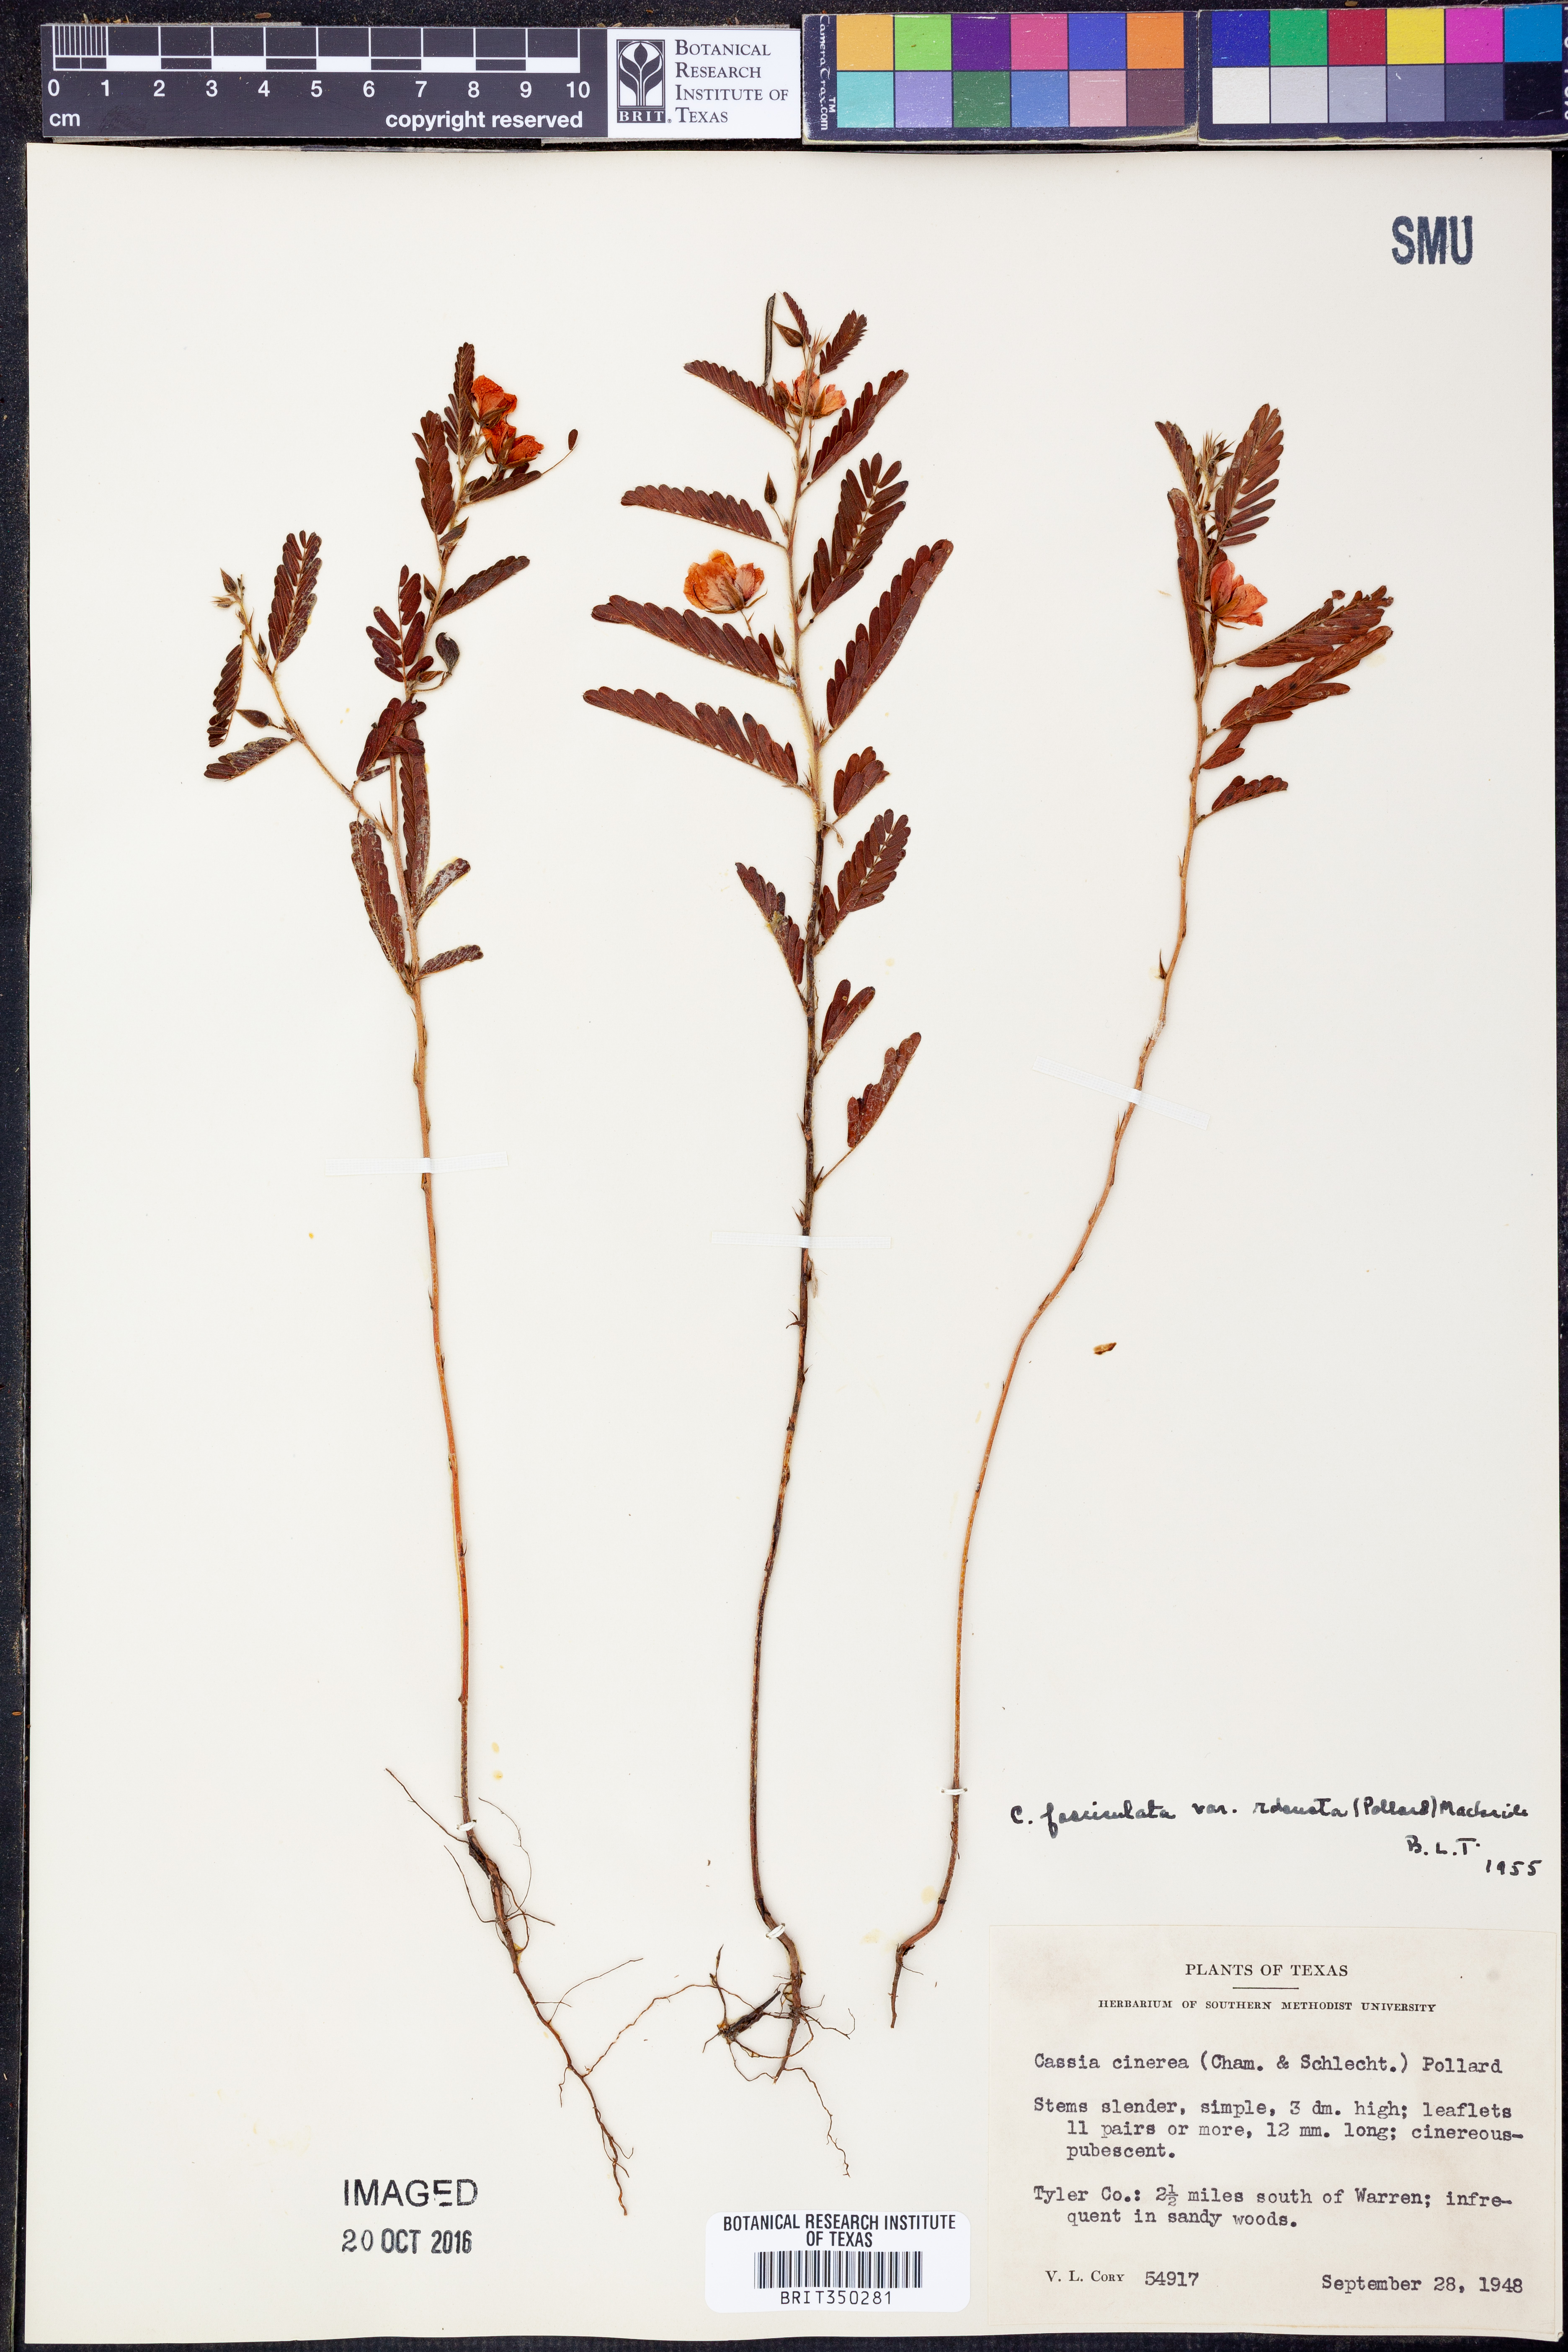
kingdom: Plantae
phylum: Tracheophyta
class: Magnoliopsida
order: Fabales
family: Fabaceae
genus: Chamaecrista
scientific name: Chamaecrista fasciculata
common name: Golden cassia
